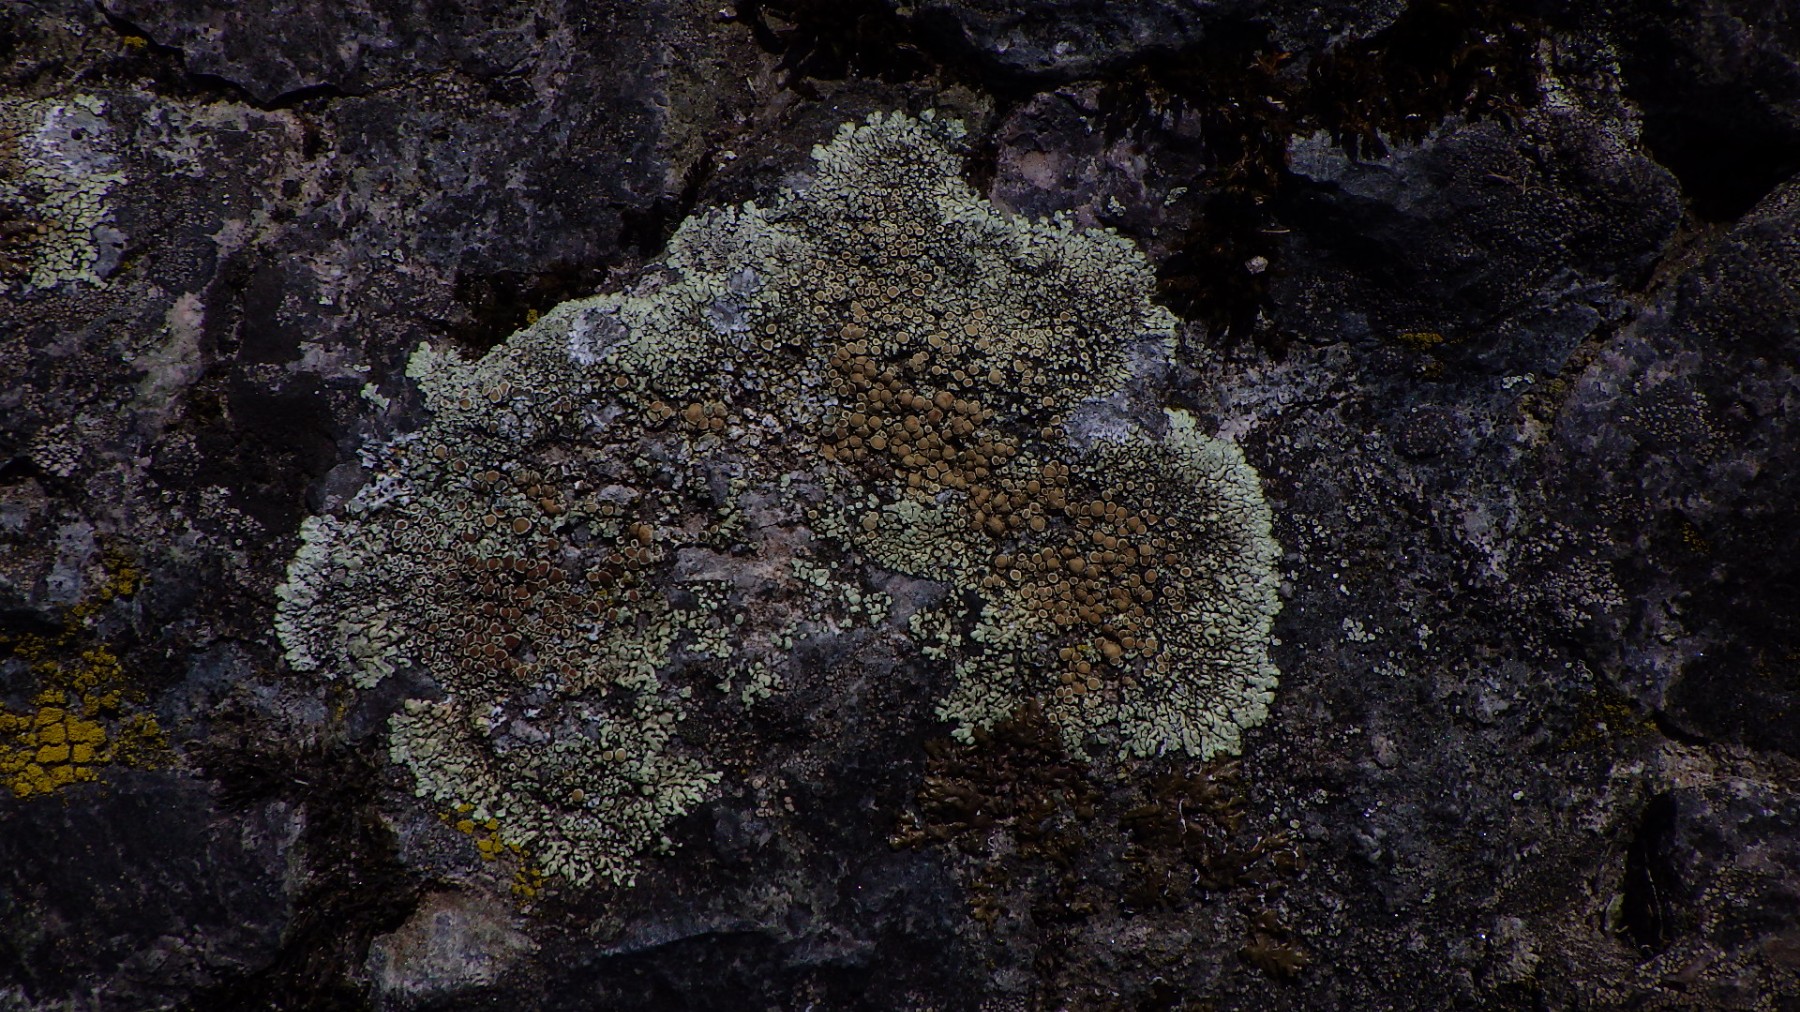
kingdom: Fungi
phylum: Ascomycota
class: Lecanoromycetes
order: Lecanorales
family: Lecanoraceae
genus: Protoparmeliopsis
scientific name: Protoparmeliopsis muralis
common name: randfliget kantskivelav
